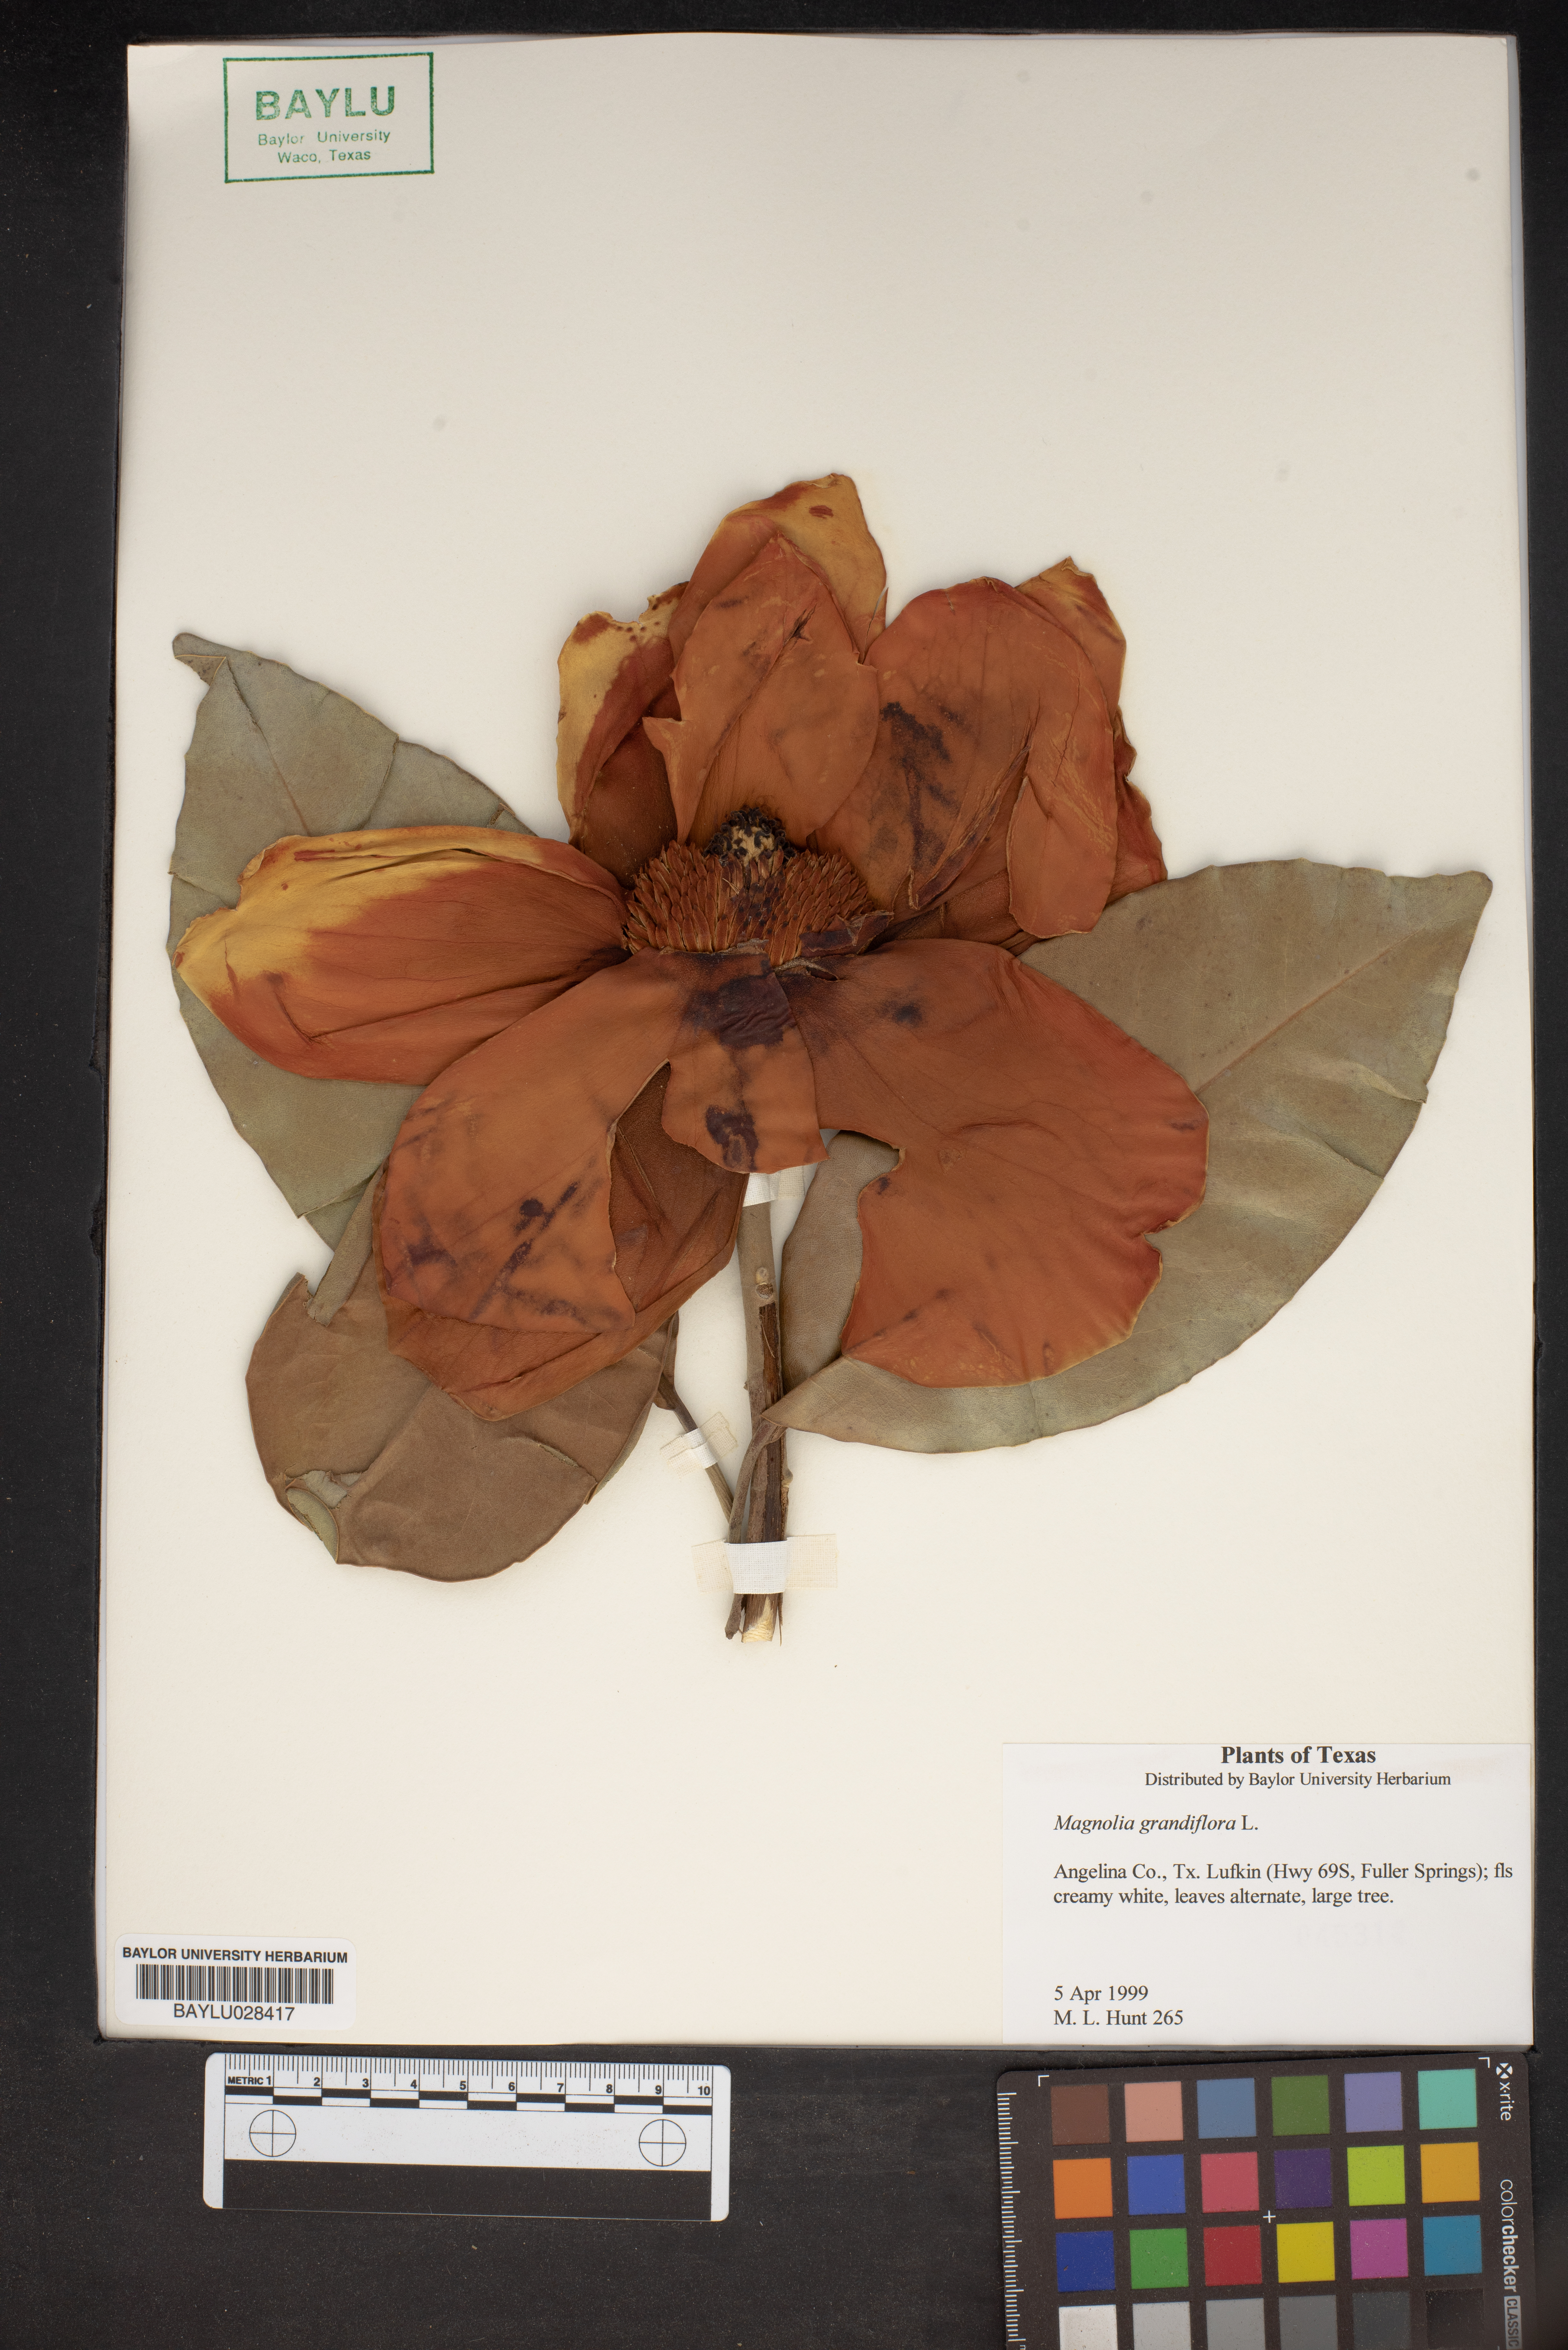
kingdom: Plantae
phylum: Tracheophyta
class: Magnoliopsida
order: Magnoliales
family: Magnoliaceae
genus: Magnolia
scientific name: Magnolia grandiflora
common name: Southern magnolia
